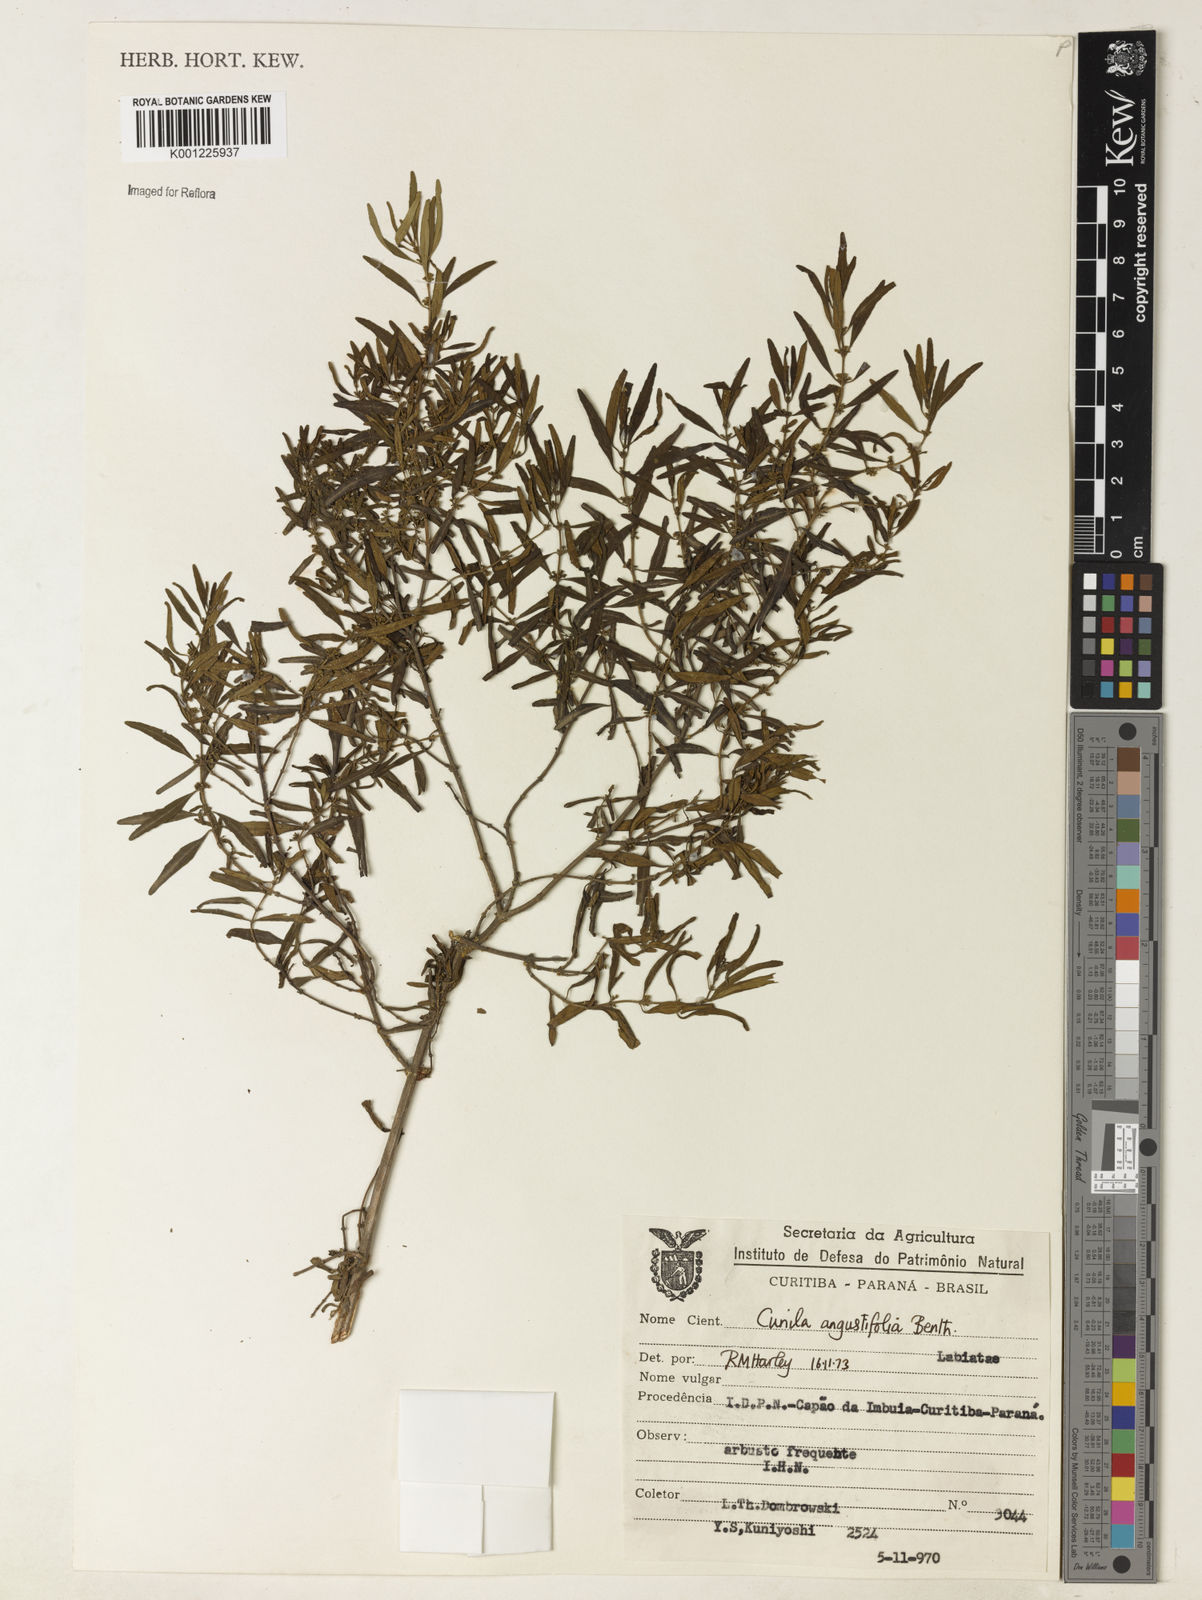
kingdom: Plantae
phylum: Tracheophyta
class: Magnoliopsida
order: Lamiales
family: Lamiaceae
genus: Cunila
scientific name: Cunila angustifolia
